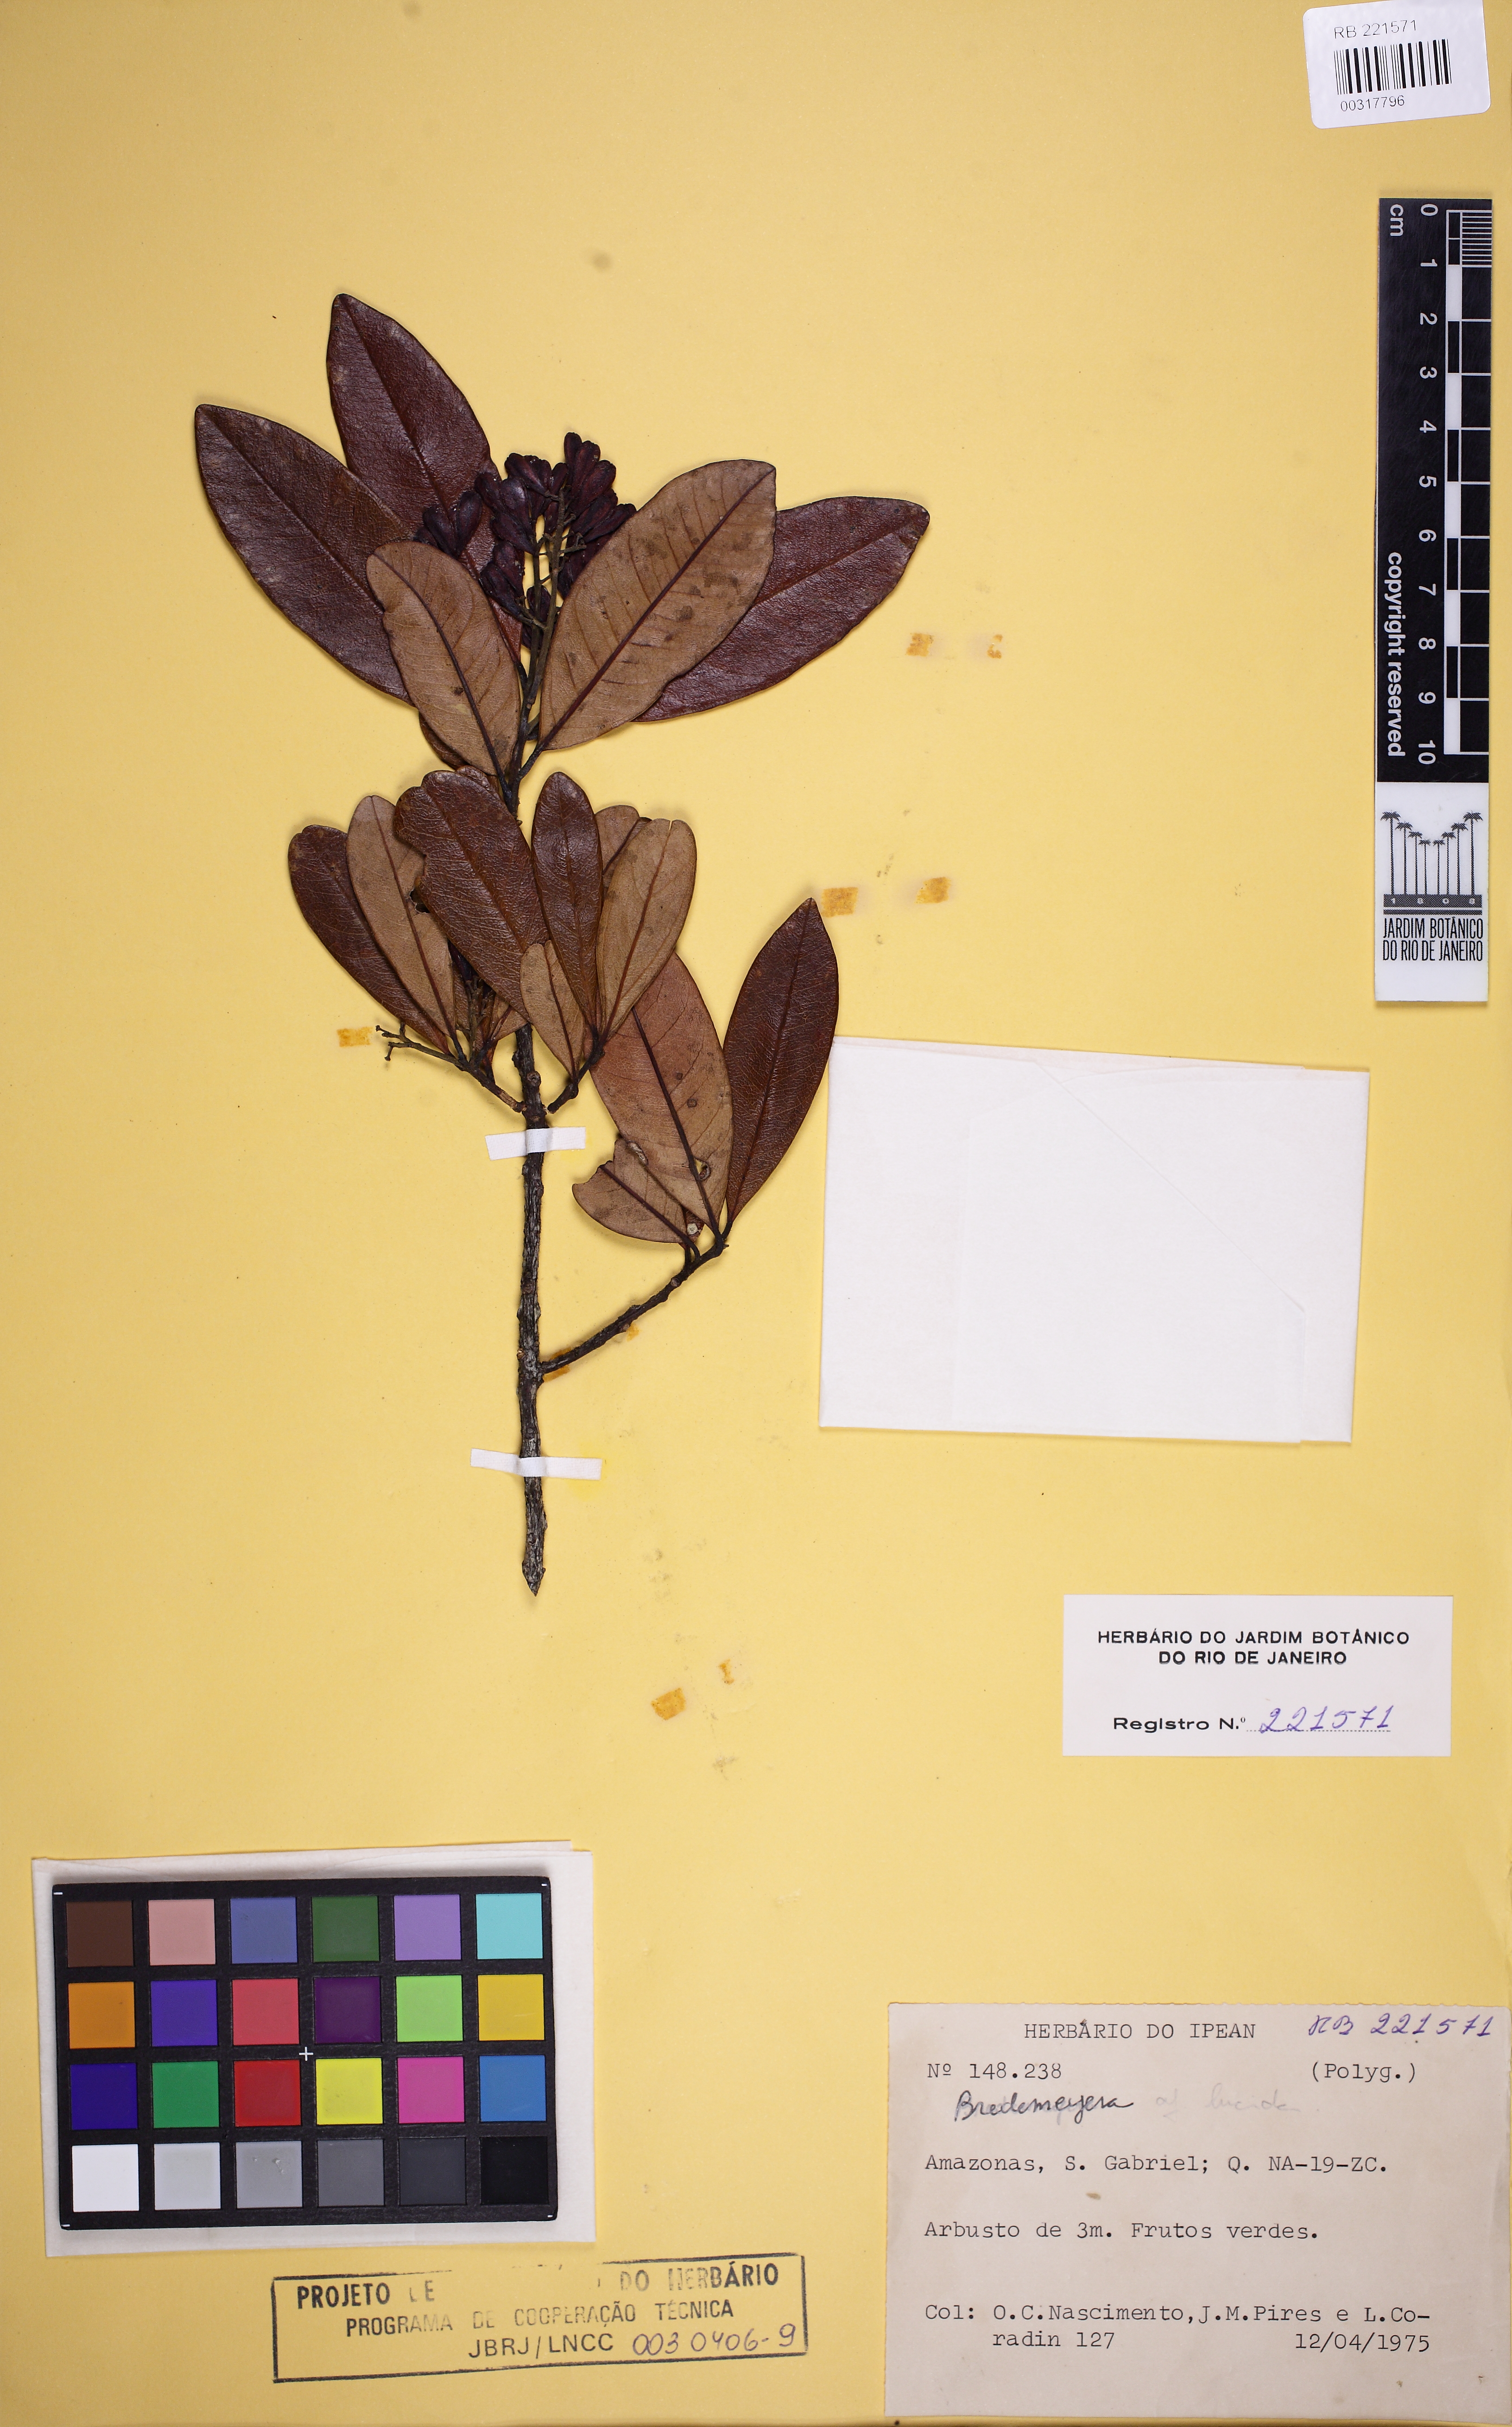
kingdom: Plantae
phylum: Tracheophyta
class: Magnoliopsida
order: Fabales
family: Polygalaceae
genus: Bredemeyera
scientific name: Bredemeyera myrtifolia
